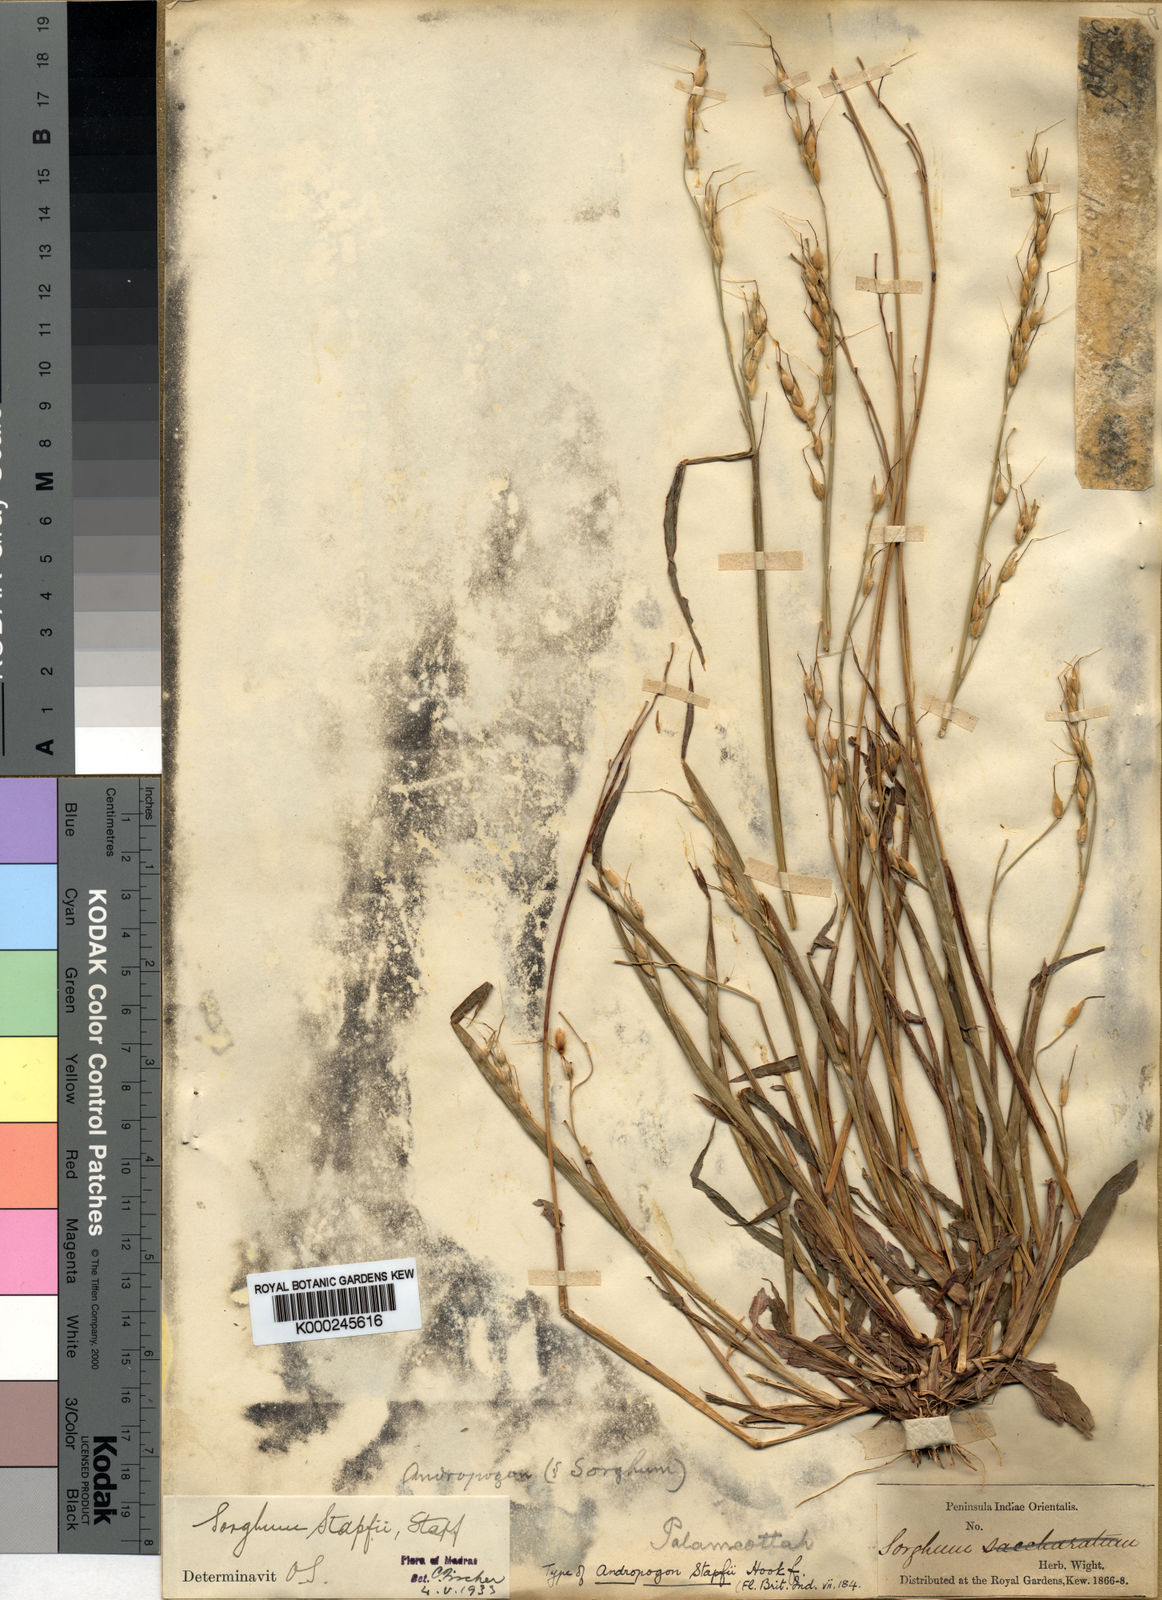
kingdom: Plantae
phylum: Tracheophyta
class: Liliopsida
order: Poales
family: Poaceae
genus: Sorghum
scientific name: Sorghum arundinaceum
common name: Sorghum
